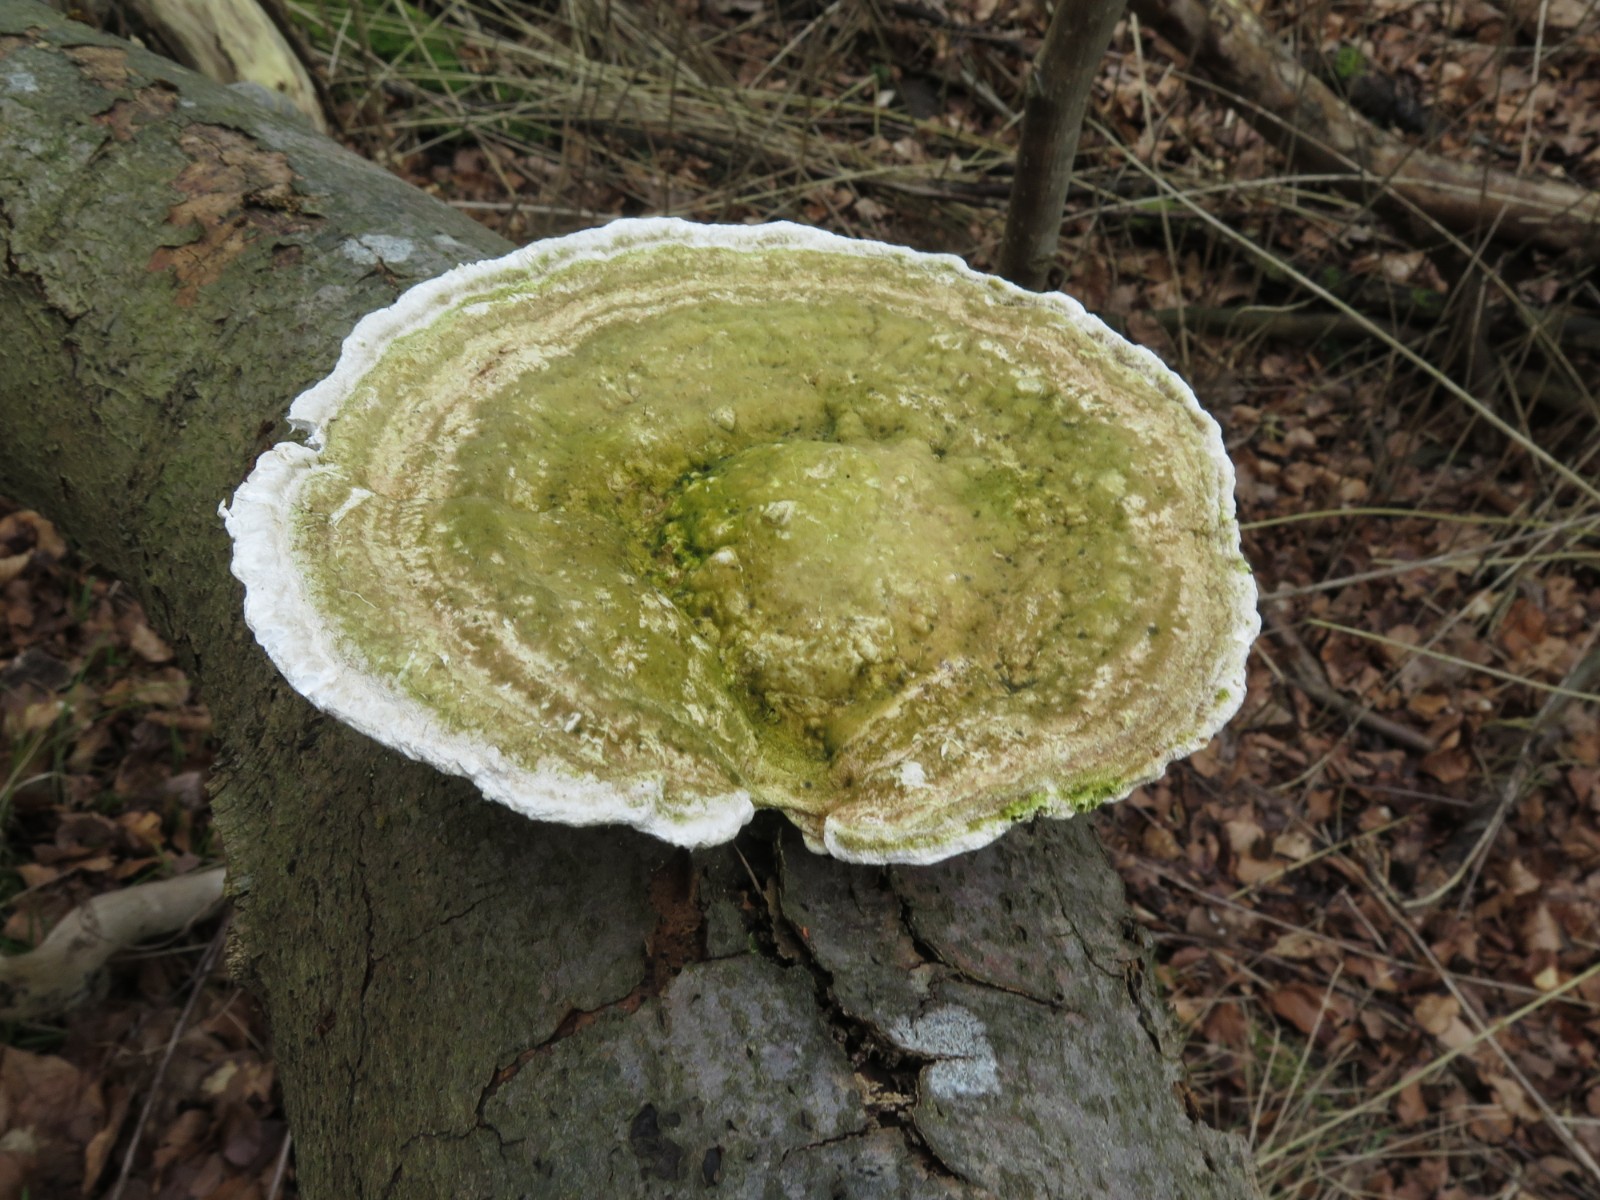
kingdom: Fungi
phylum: Basidiomycota
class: Agaricomycetes
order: Polyporales
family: Polyporaceae
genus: Trametes
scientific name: Trametes hirsuta
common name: håret læderporesvamp
